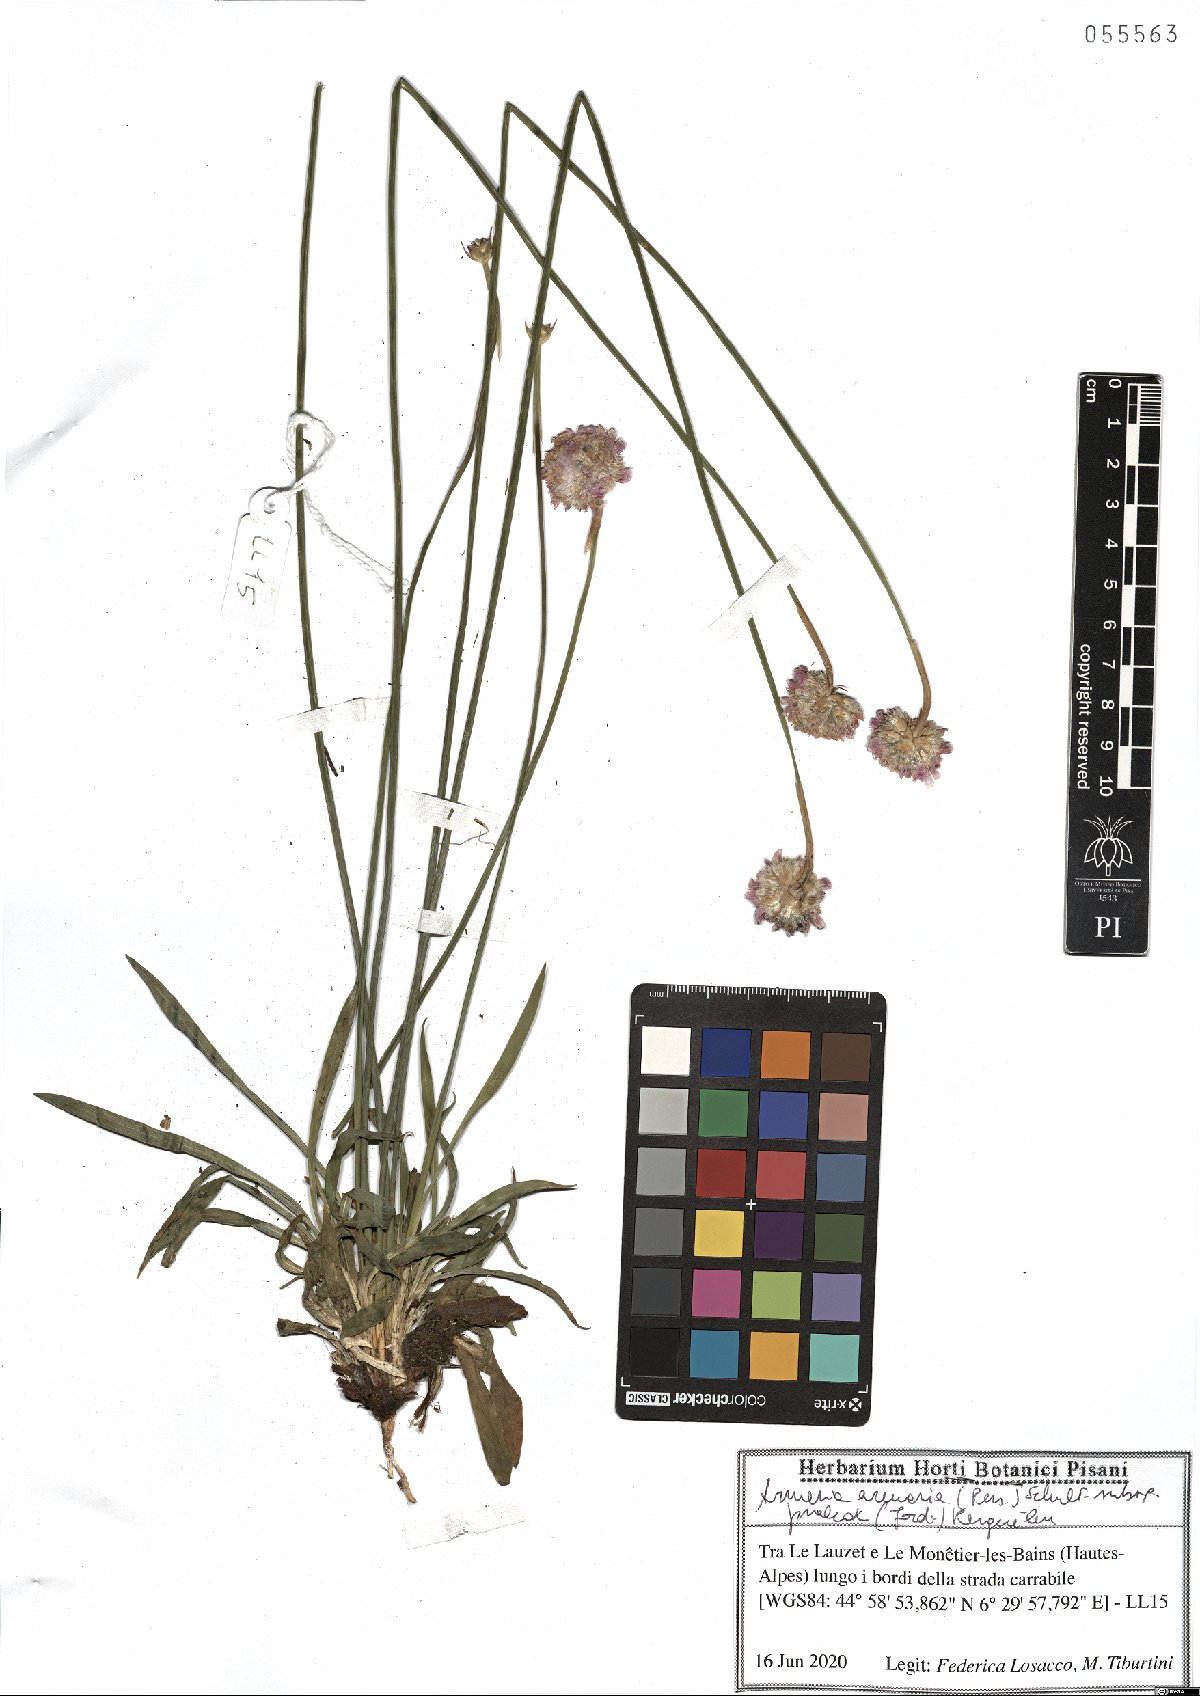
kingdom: Plantae
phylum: Tracheophyta
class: Magnoliopsida
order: Caryophyllales
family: Plumbaginaceae
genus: Armeria
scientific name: Armeria arenaria
